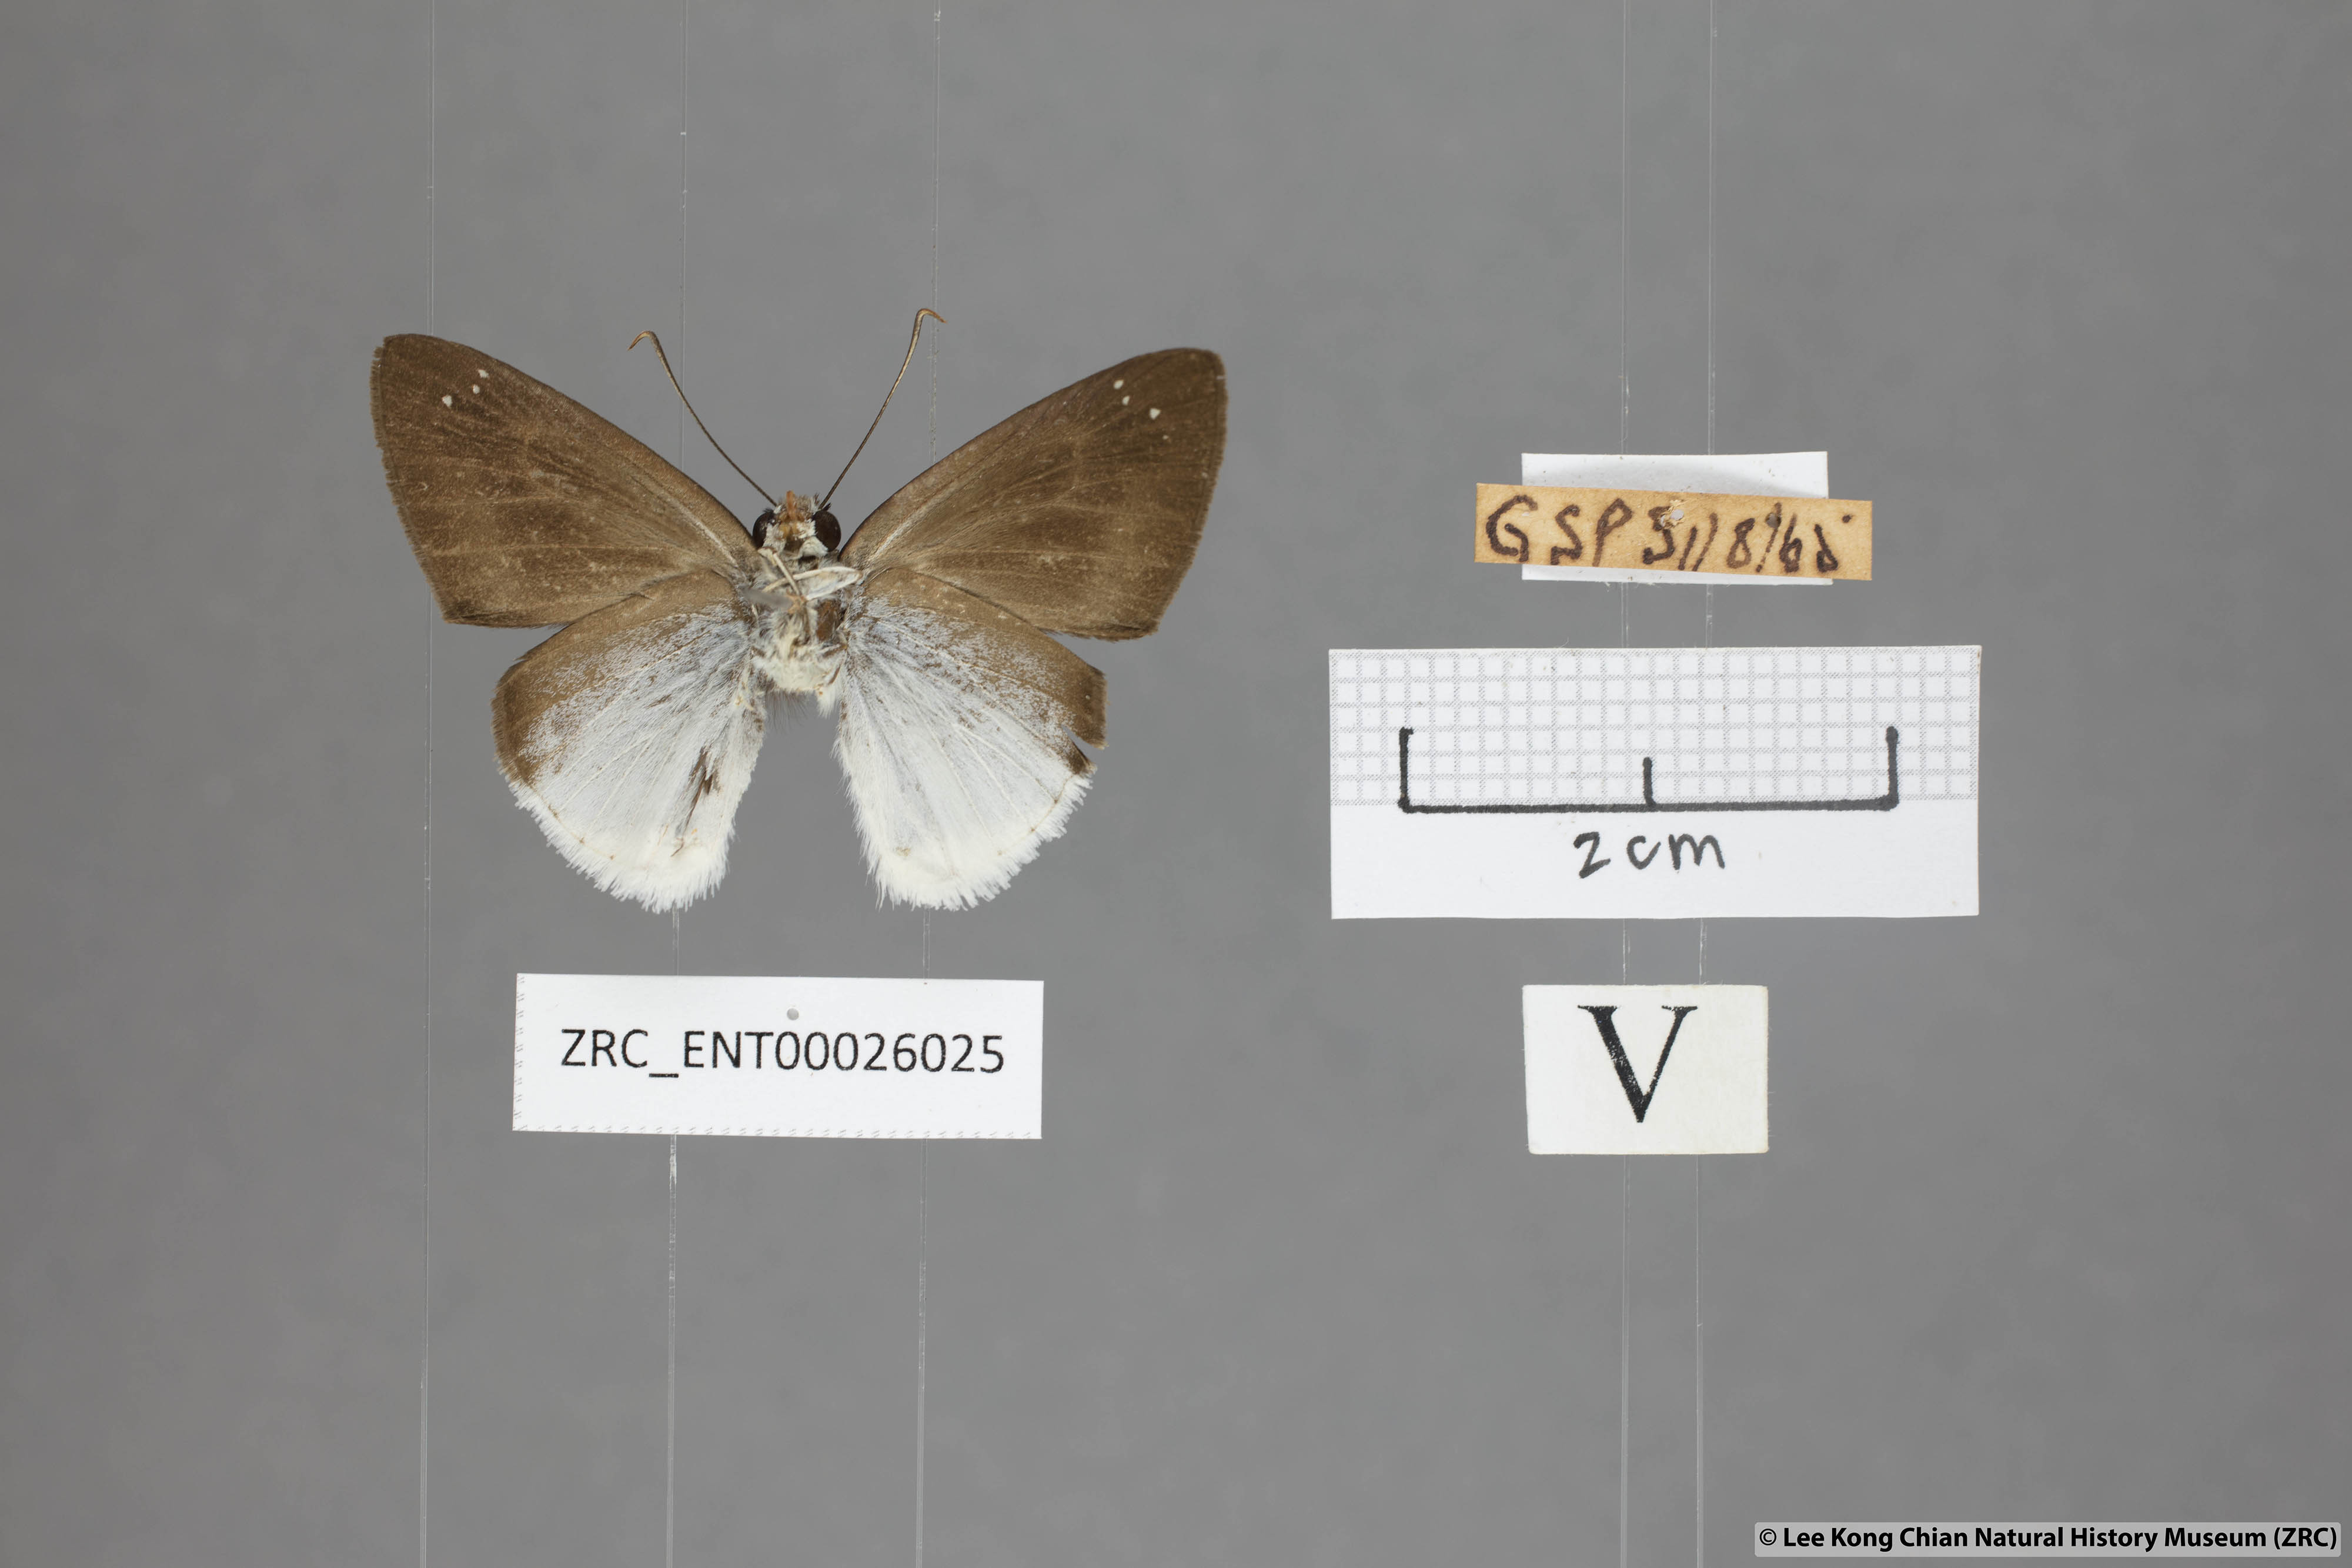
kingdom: Animalia
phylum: Arthropoda
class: Insecta
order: Lepidoptera
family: Hesperiidae
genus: Tagiades
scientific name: Tagiades lavata
